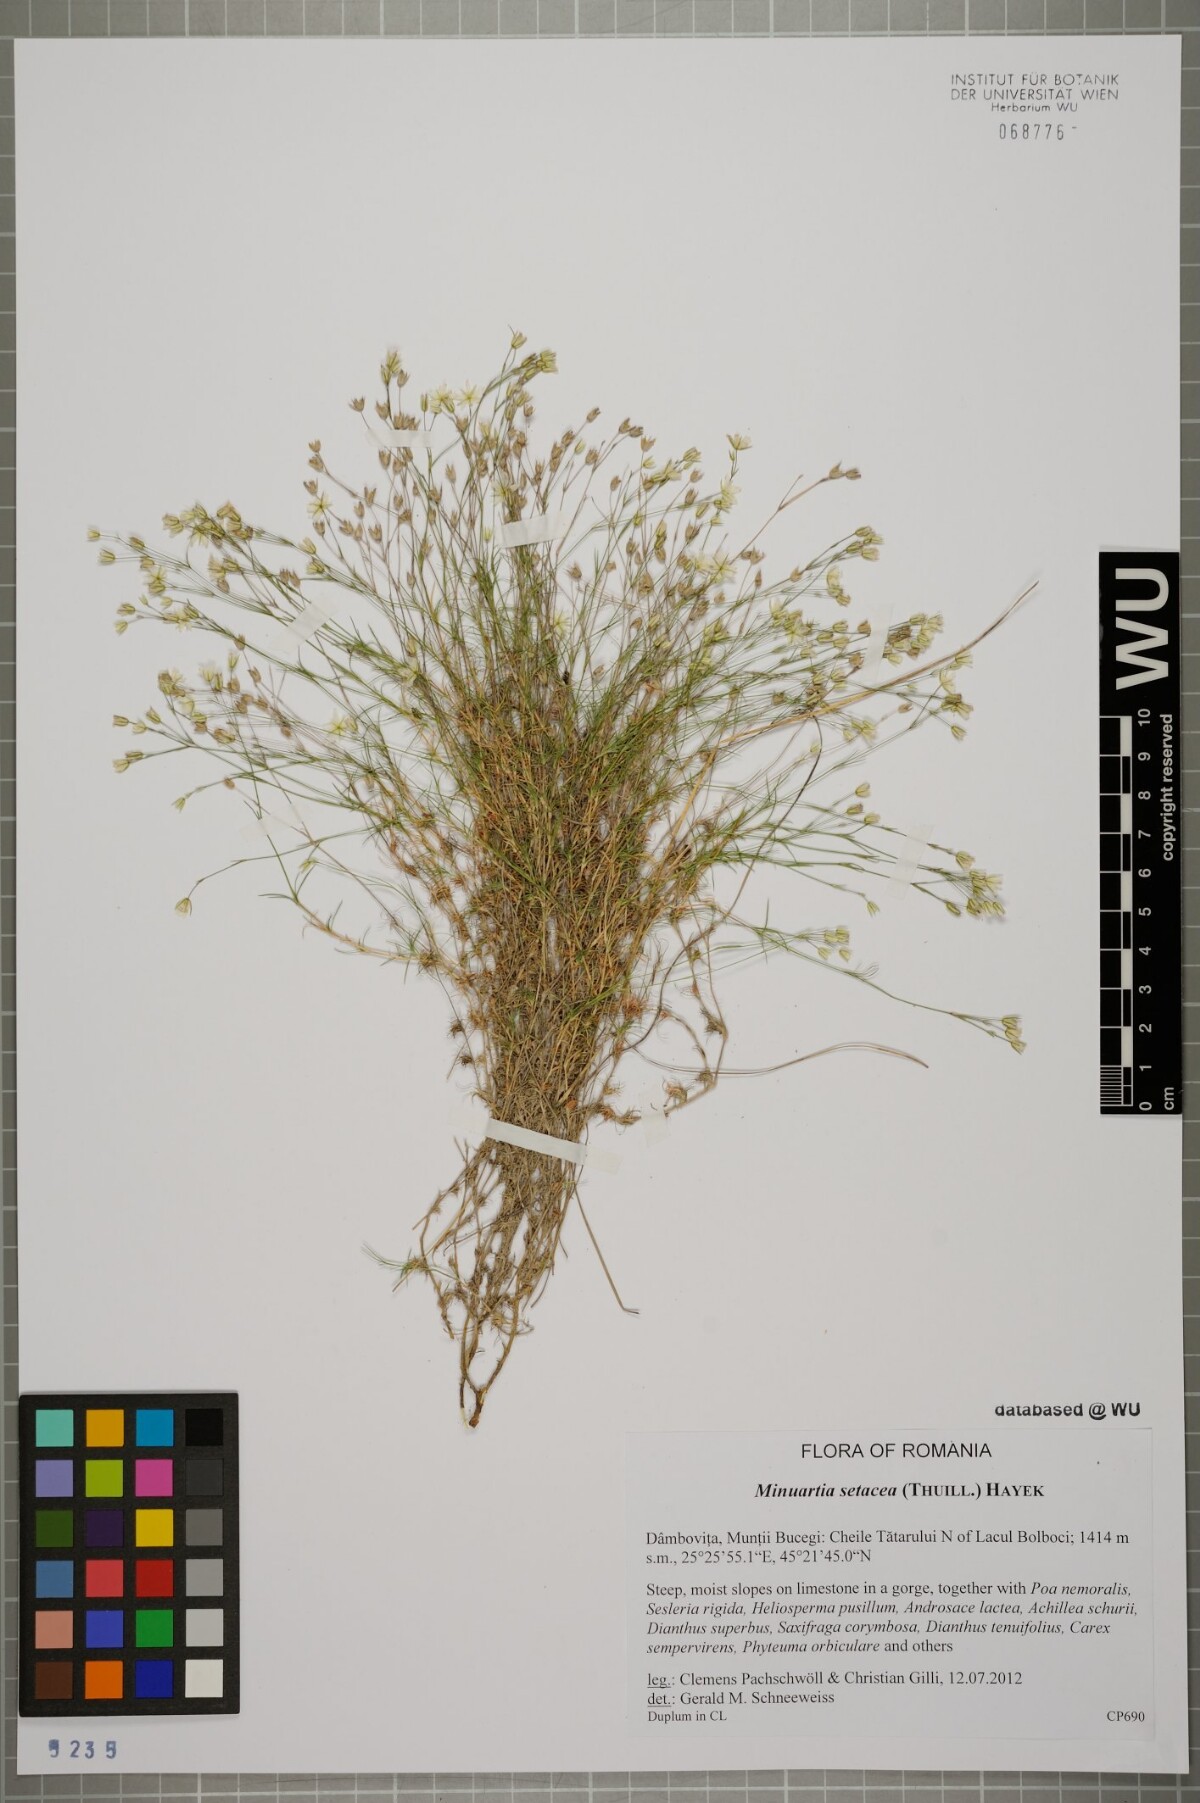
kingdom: Plantae
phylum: Tracheophyta
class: Magnoliopsida
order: Caryophyllales
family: Caryophyllaceae
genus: Minuartia
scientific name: Minuartia setacea
